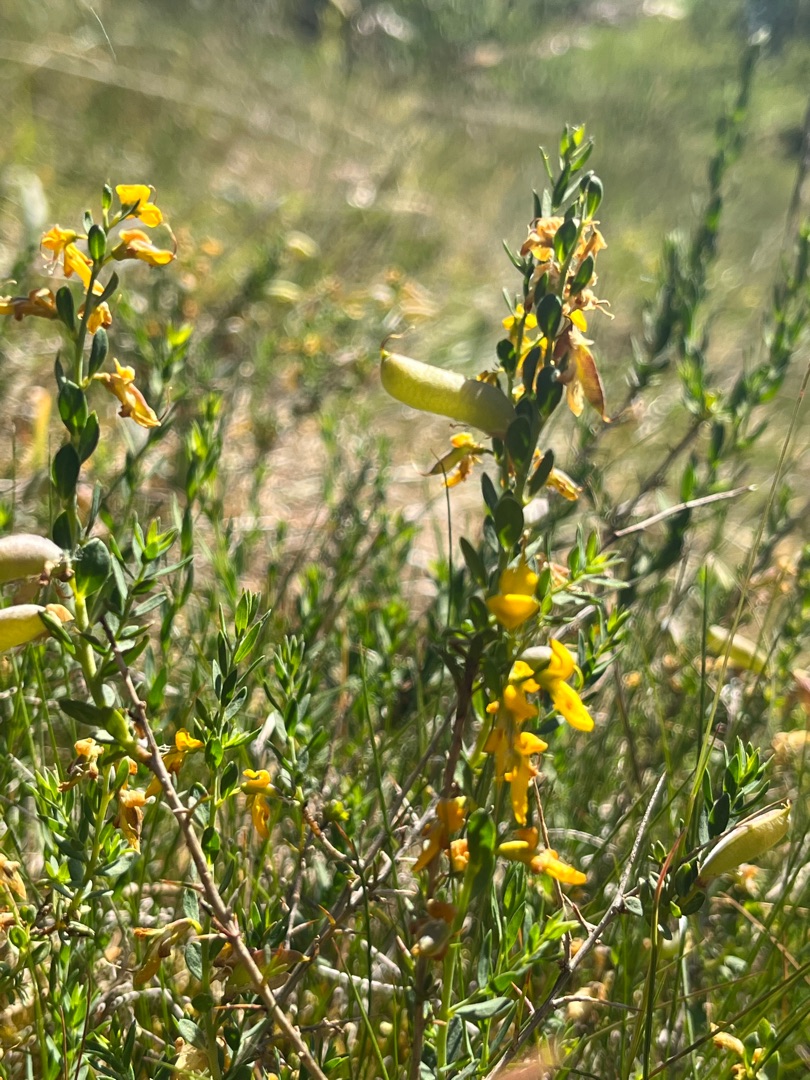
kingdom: Plantae
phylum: Tracheophyta
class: Magnoliopsida
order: Fabales
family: Fabaceae
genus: Genista
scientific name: Genista anglica
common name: Engelsk visse
